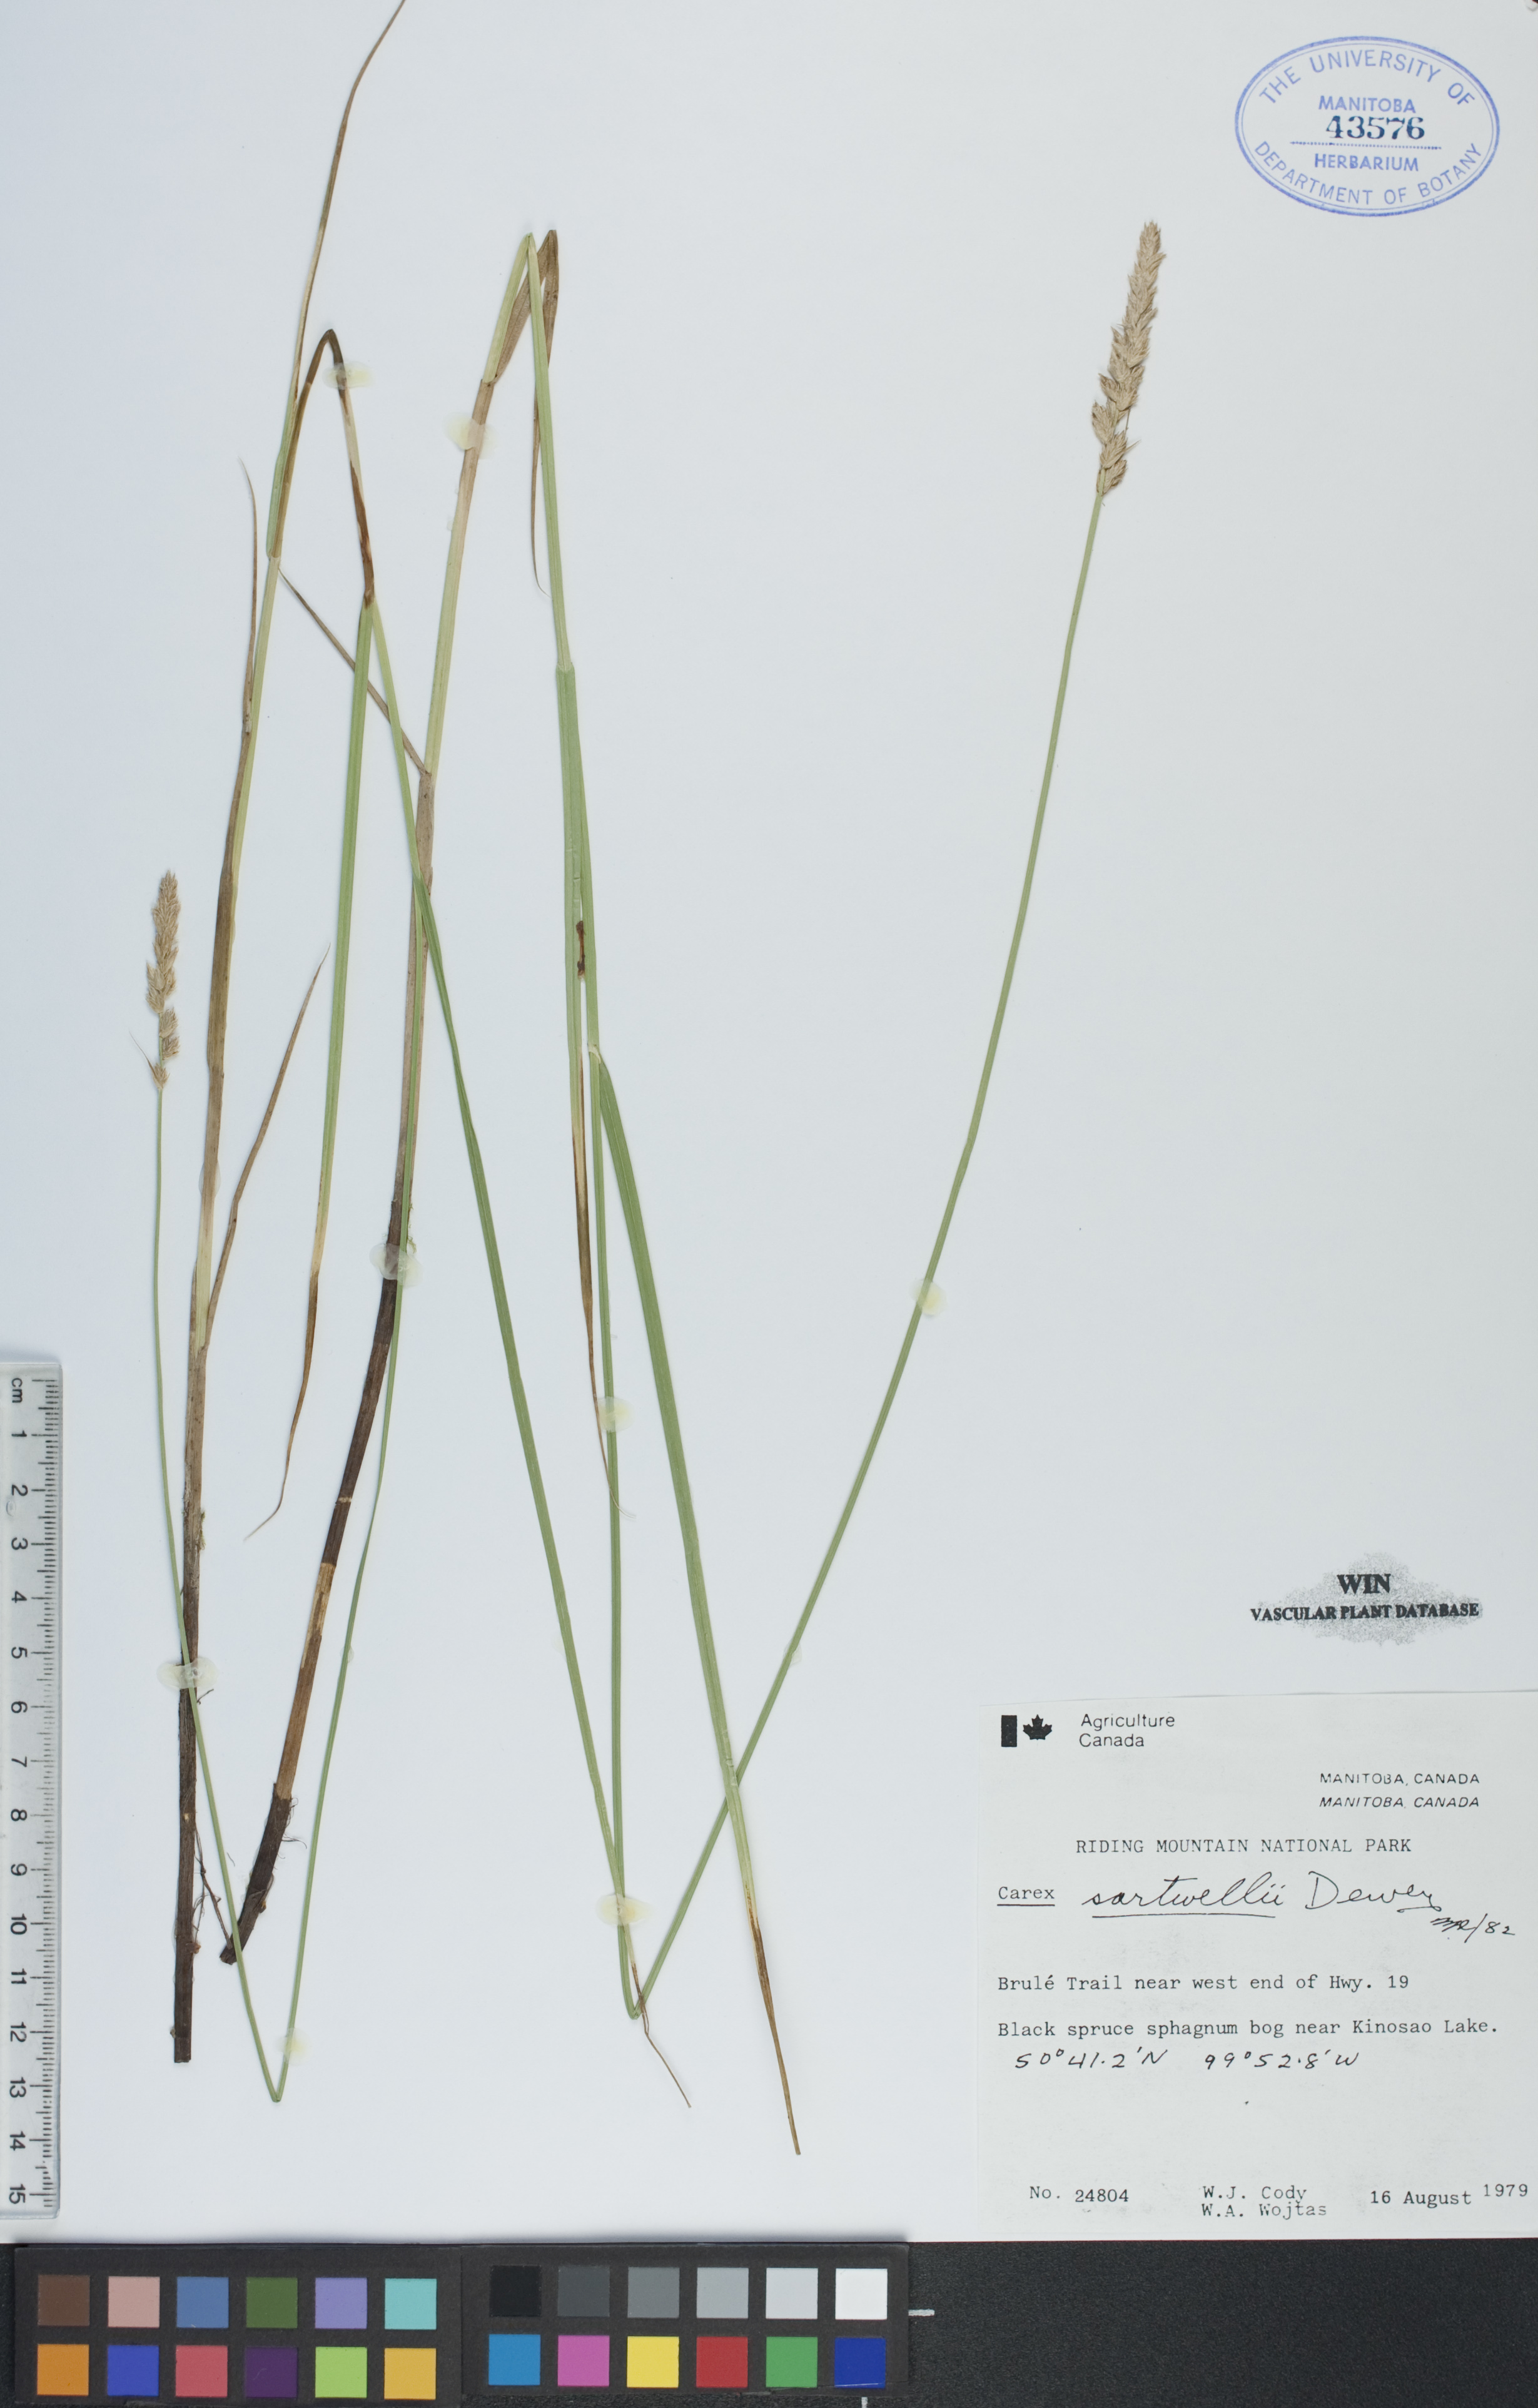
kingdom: Plantae
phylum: Tracheophyta
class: Liliopsida
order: Poales
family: Cyperaceae
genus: Carex
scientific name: Carex sartwellii
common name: Sartwell's sedge
